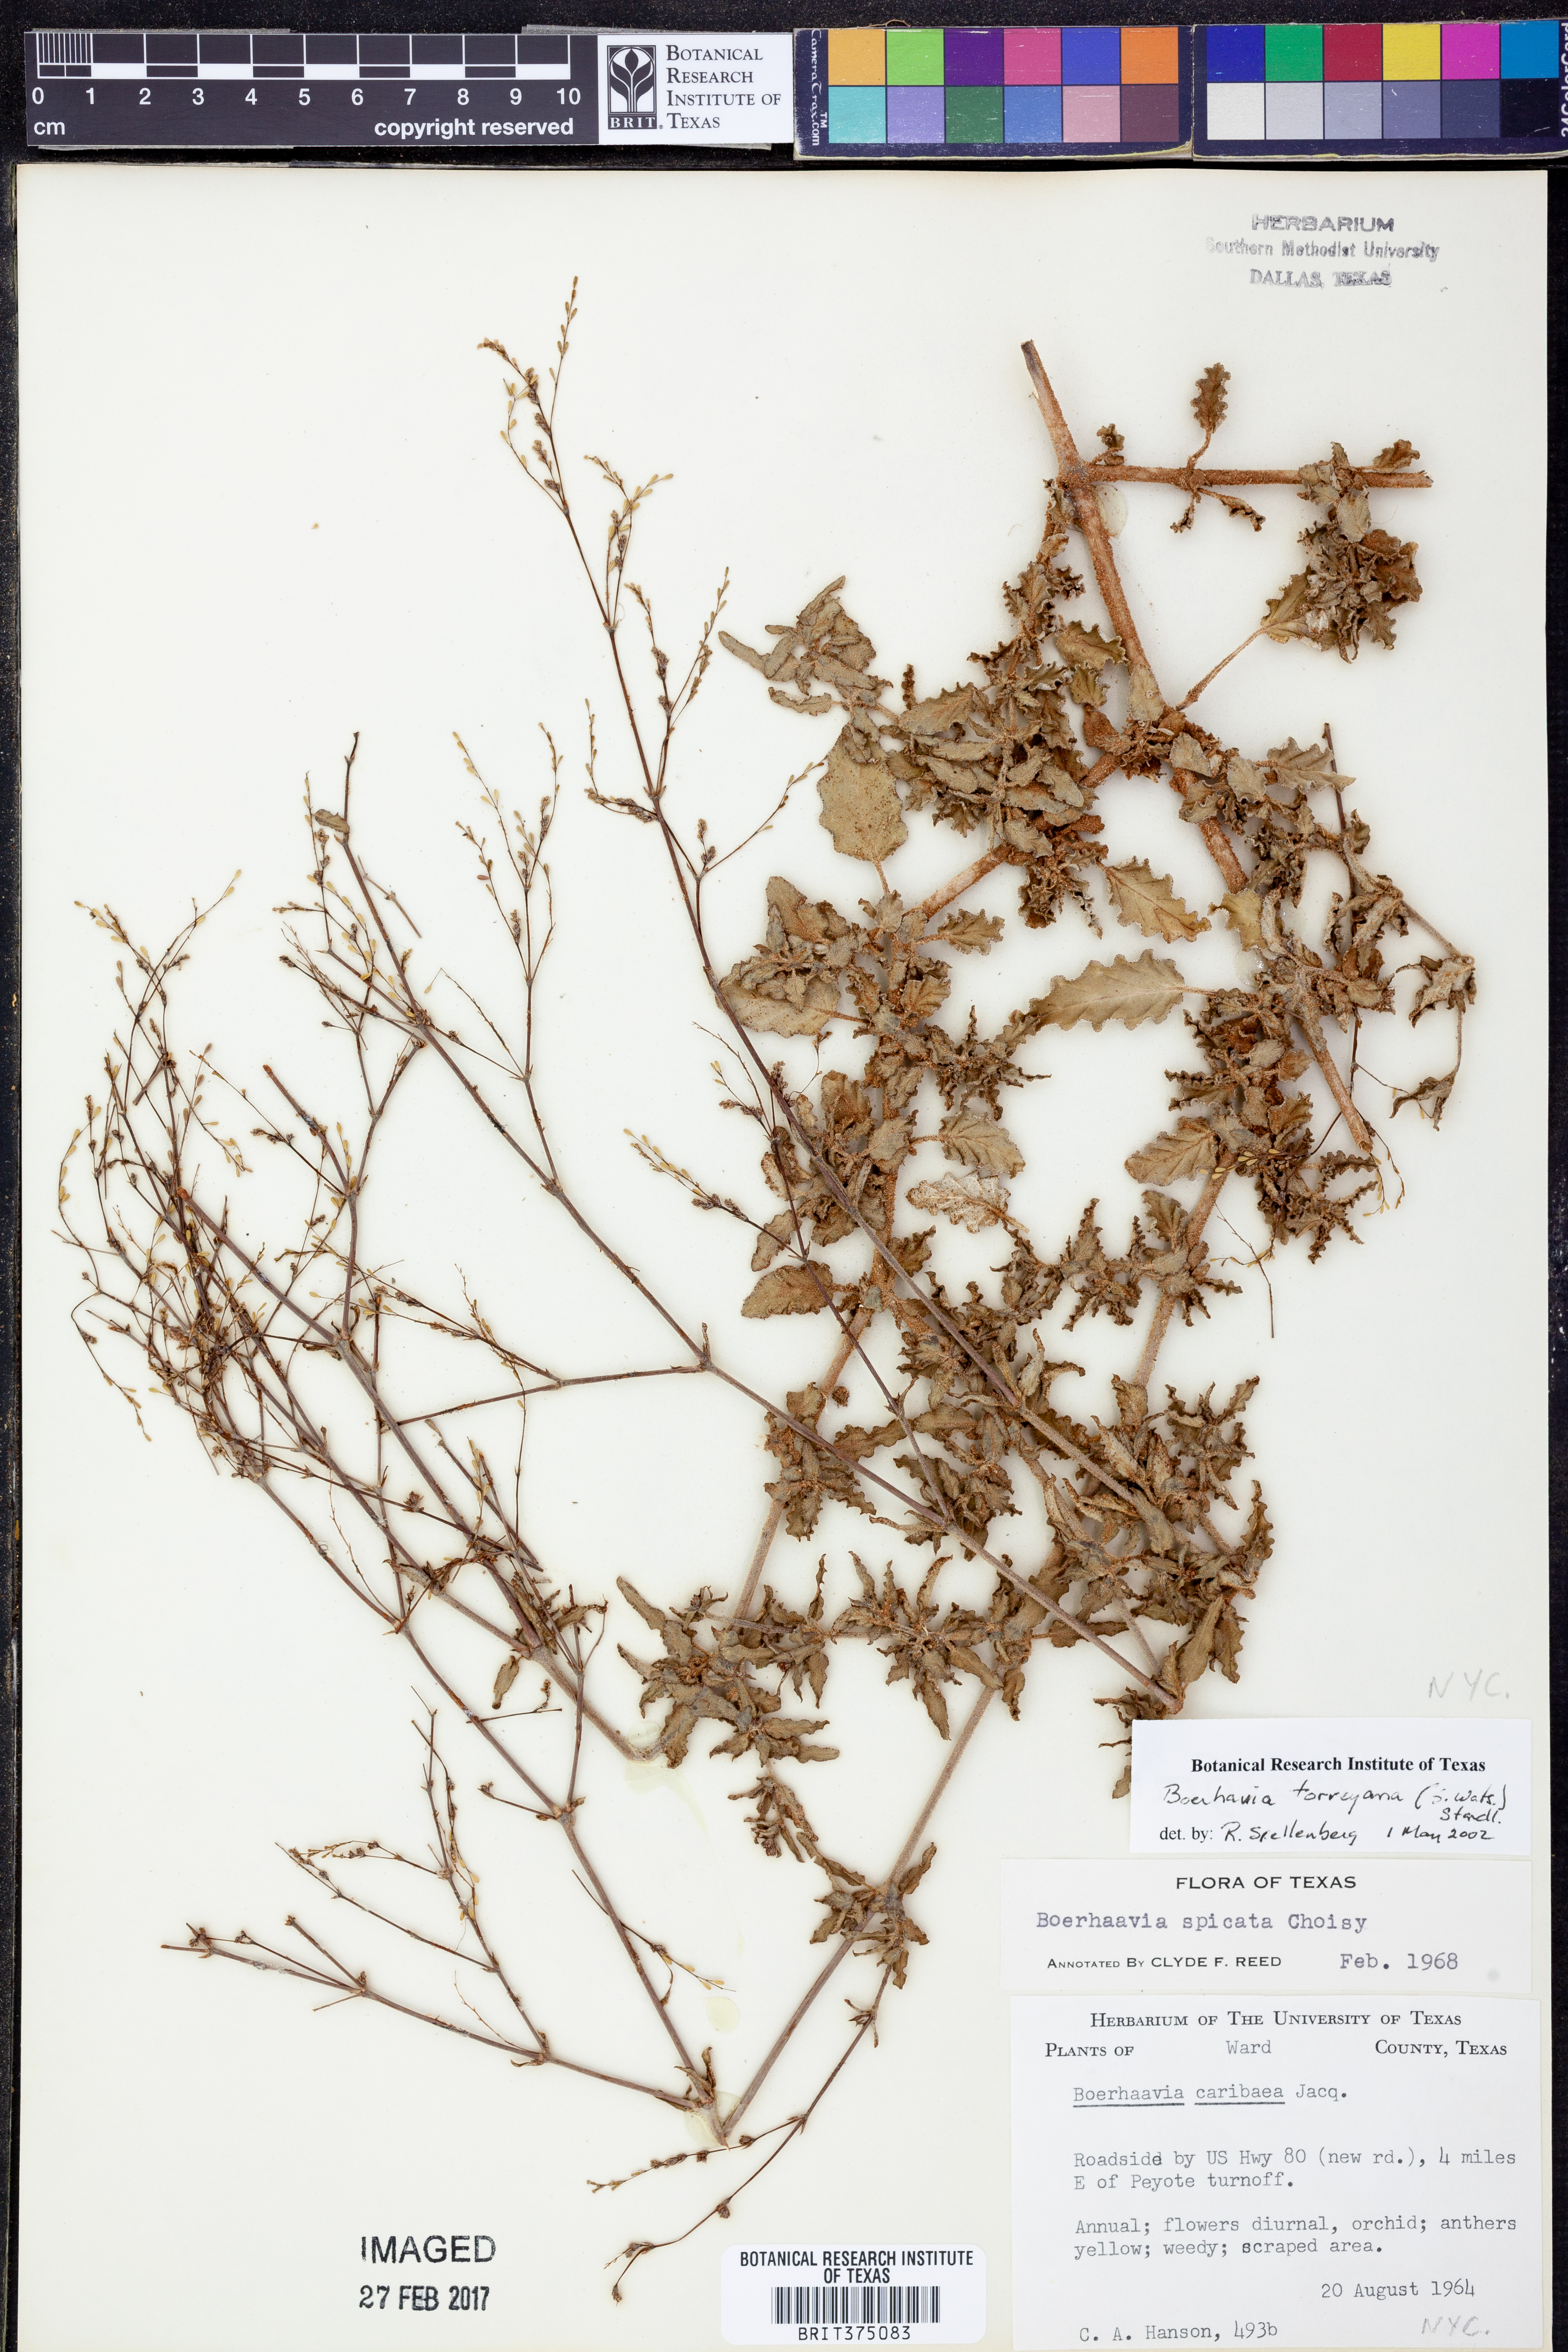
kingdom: Plantae
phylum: Tracheophyta
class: Magnoliopsida
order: Caryophyllales
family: Nyctaginaceae
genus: Boerhavia
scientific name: Boerhavia torreyana
